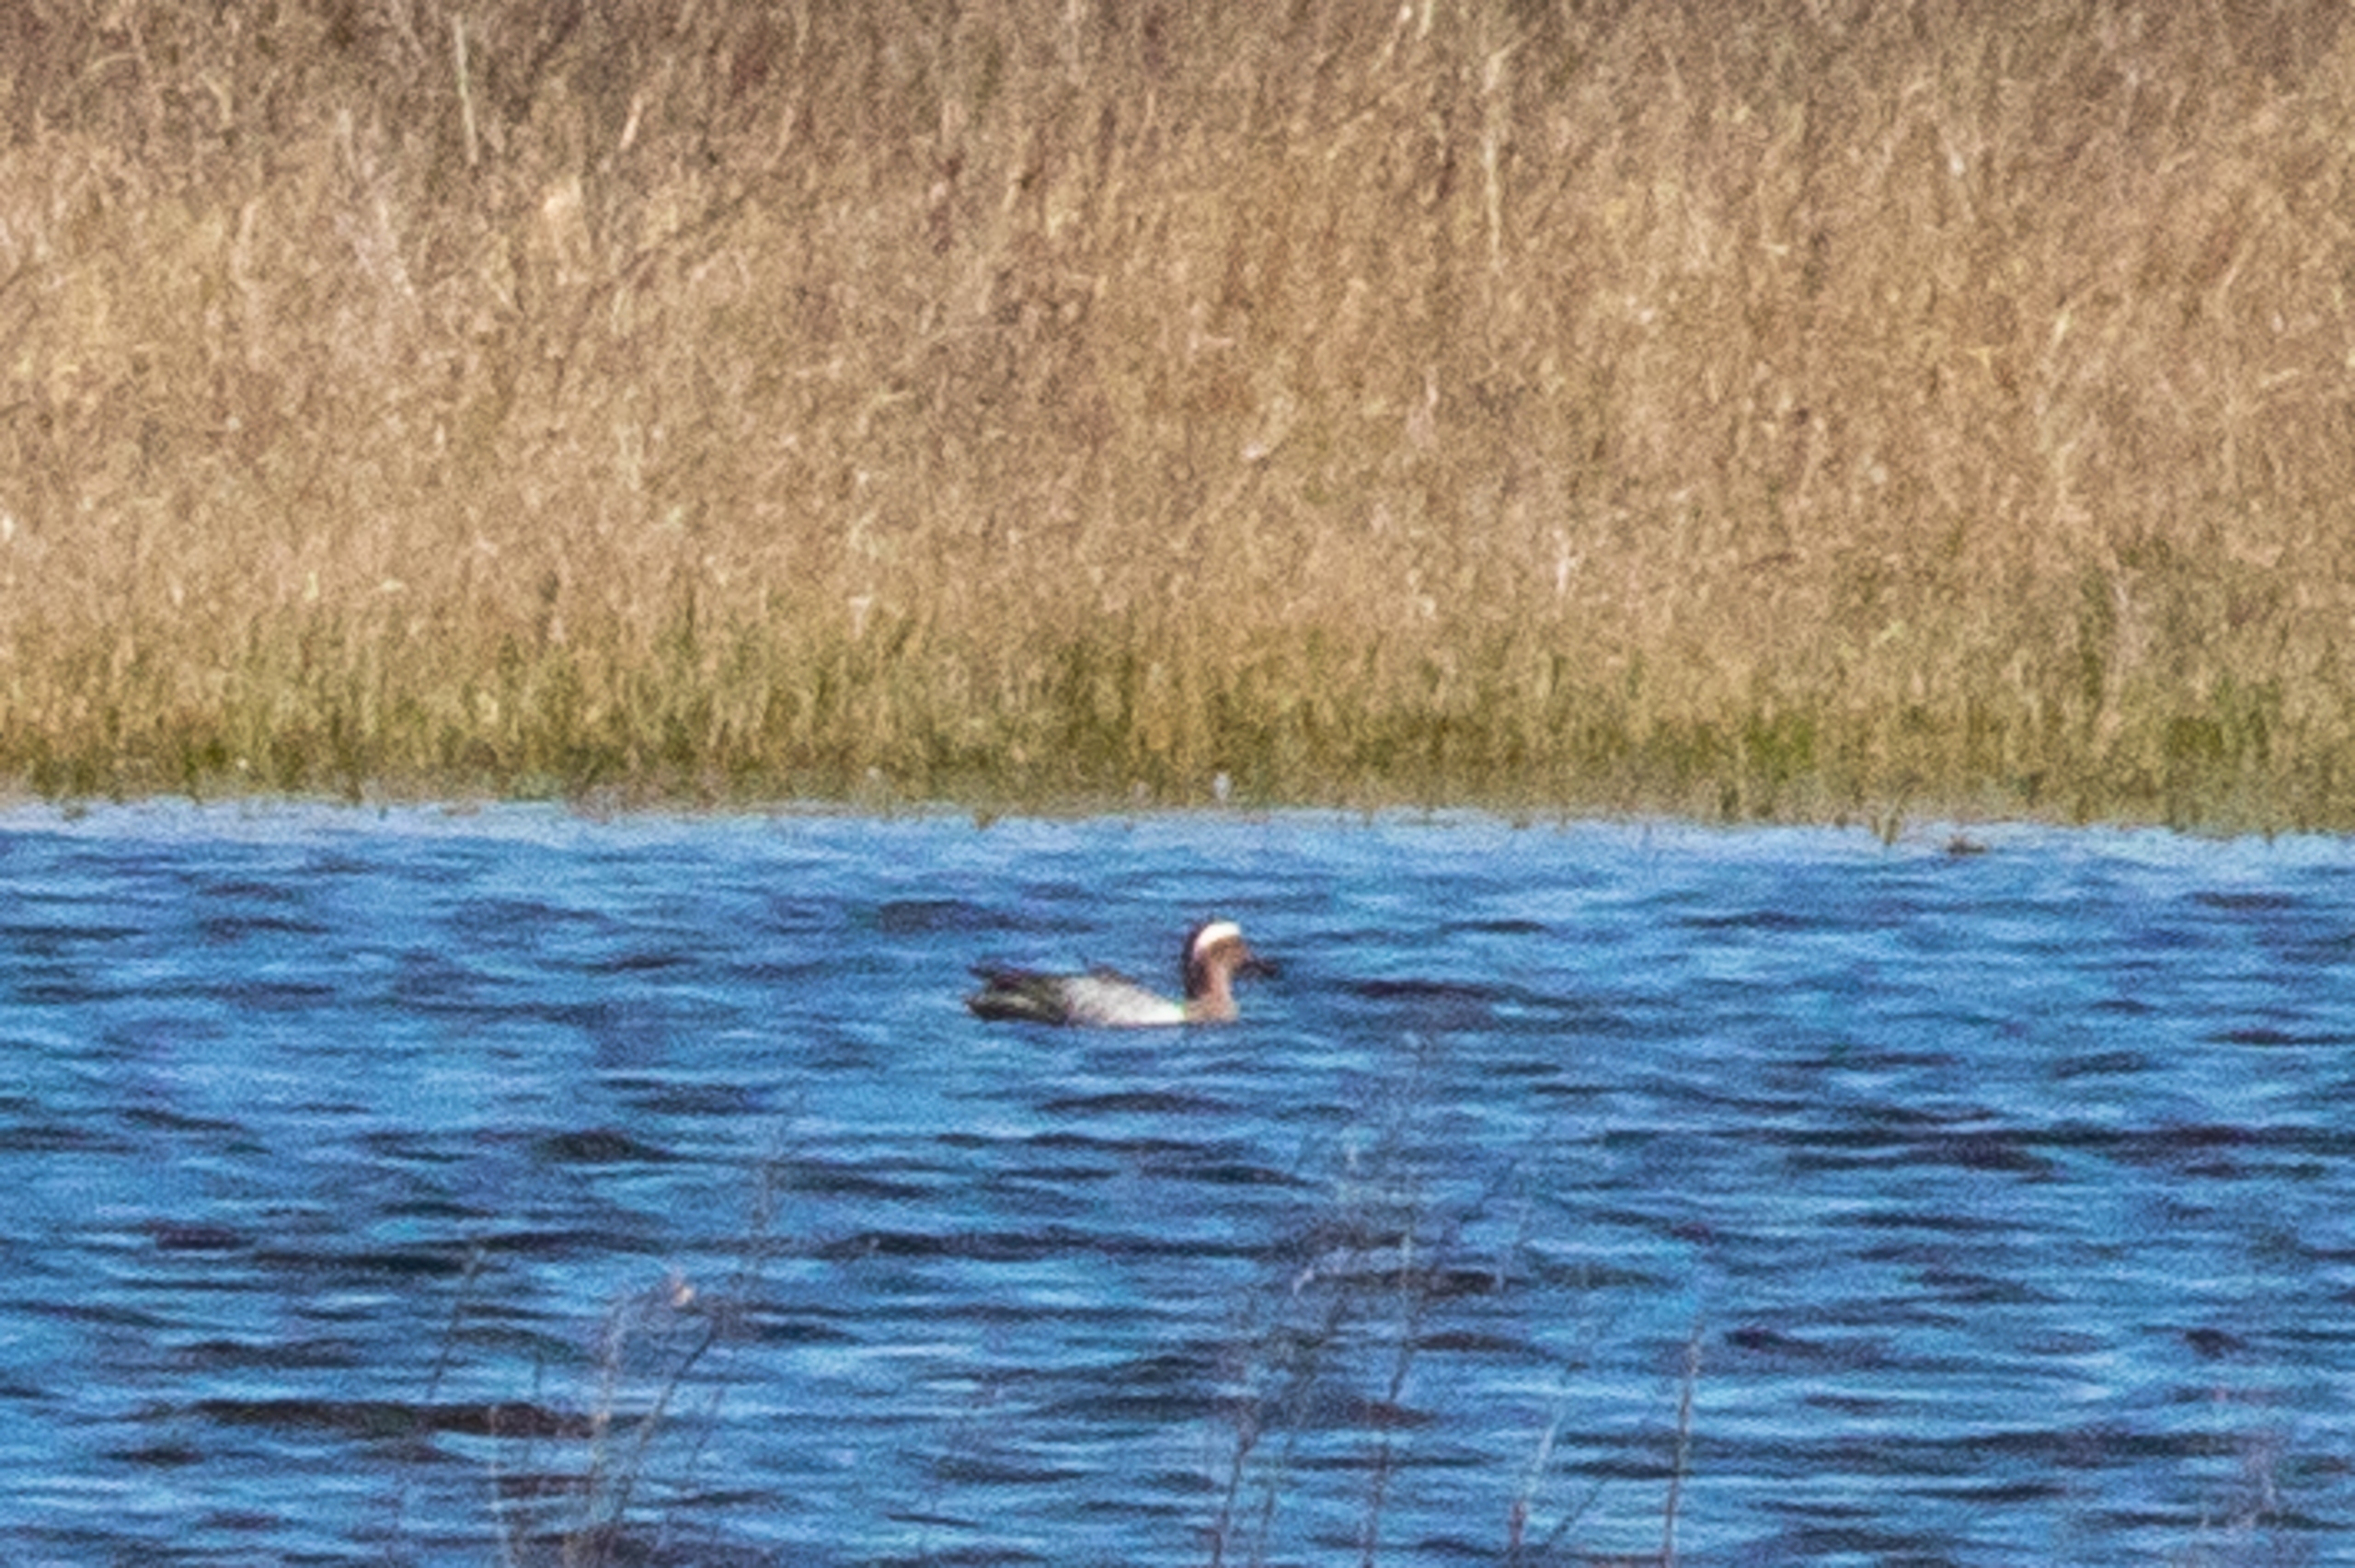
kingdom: Animalia
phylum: Chordata
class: Aves
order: Anseriformes
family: Anatidae
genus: Spatula
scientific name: Spatula querquedula
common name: Atlingand
